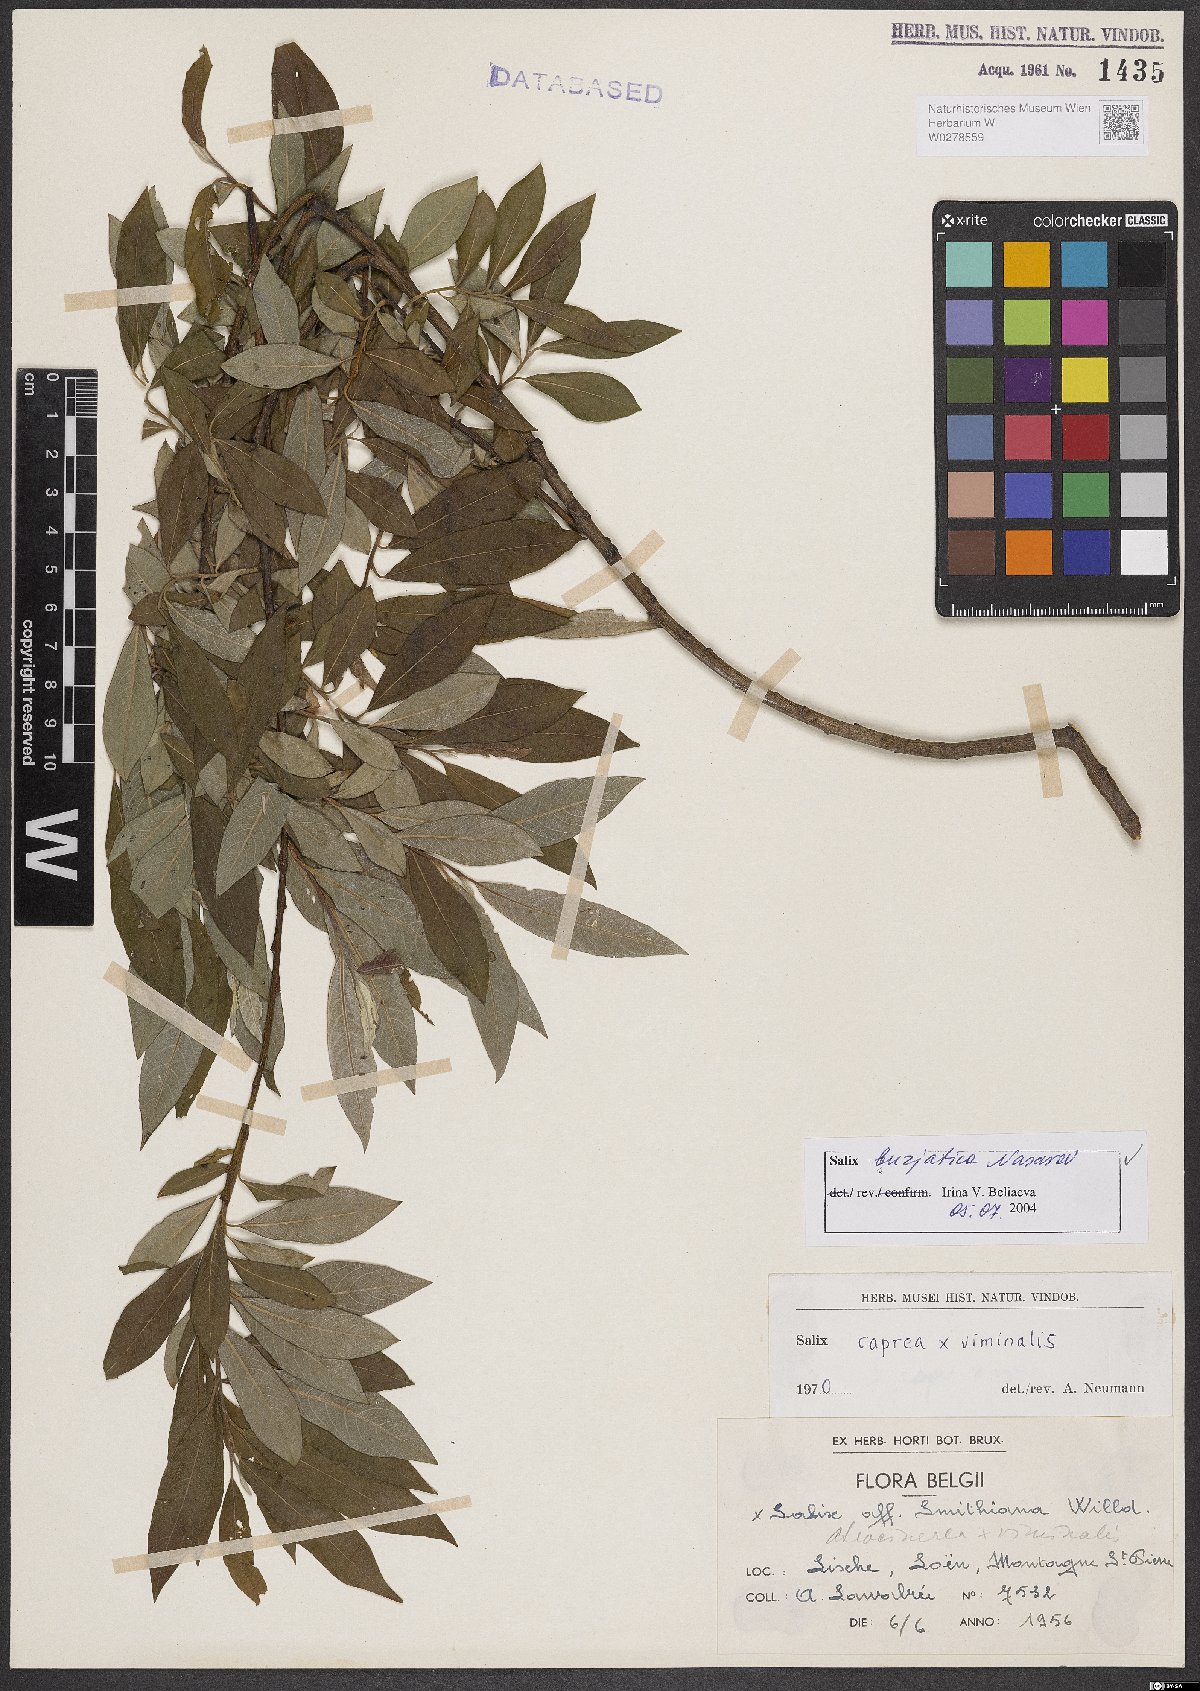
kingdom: Plantae
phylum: Tracheophyta
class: Magnoliopsida
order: Malpighiales
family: Salicaceae
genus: Salix
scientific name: Salix gmelinii
